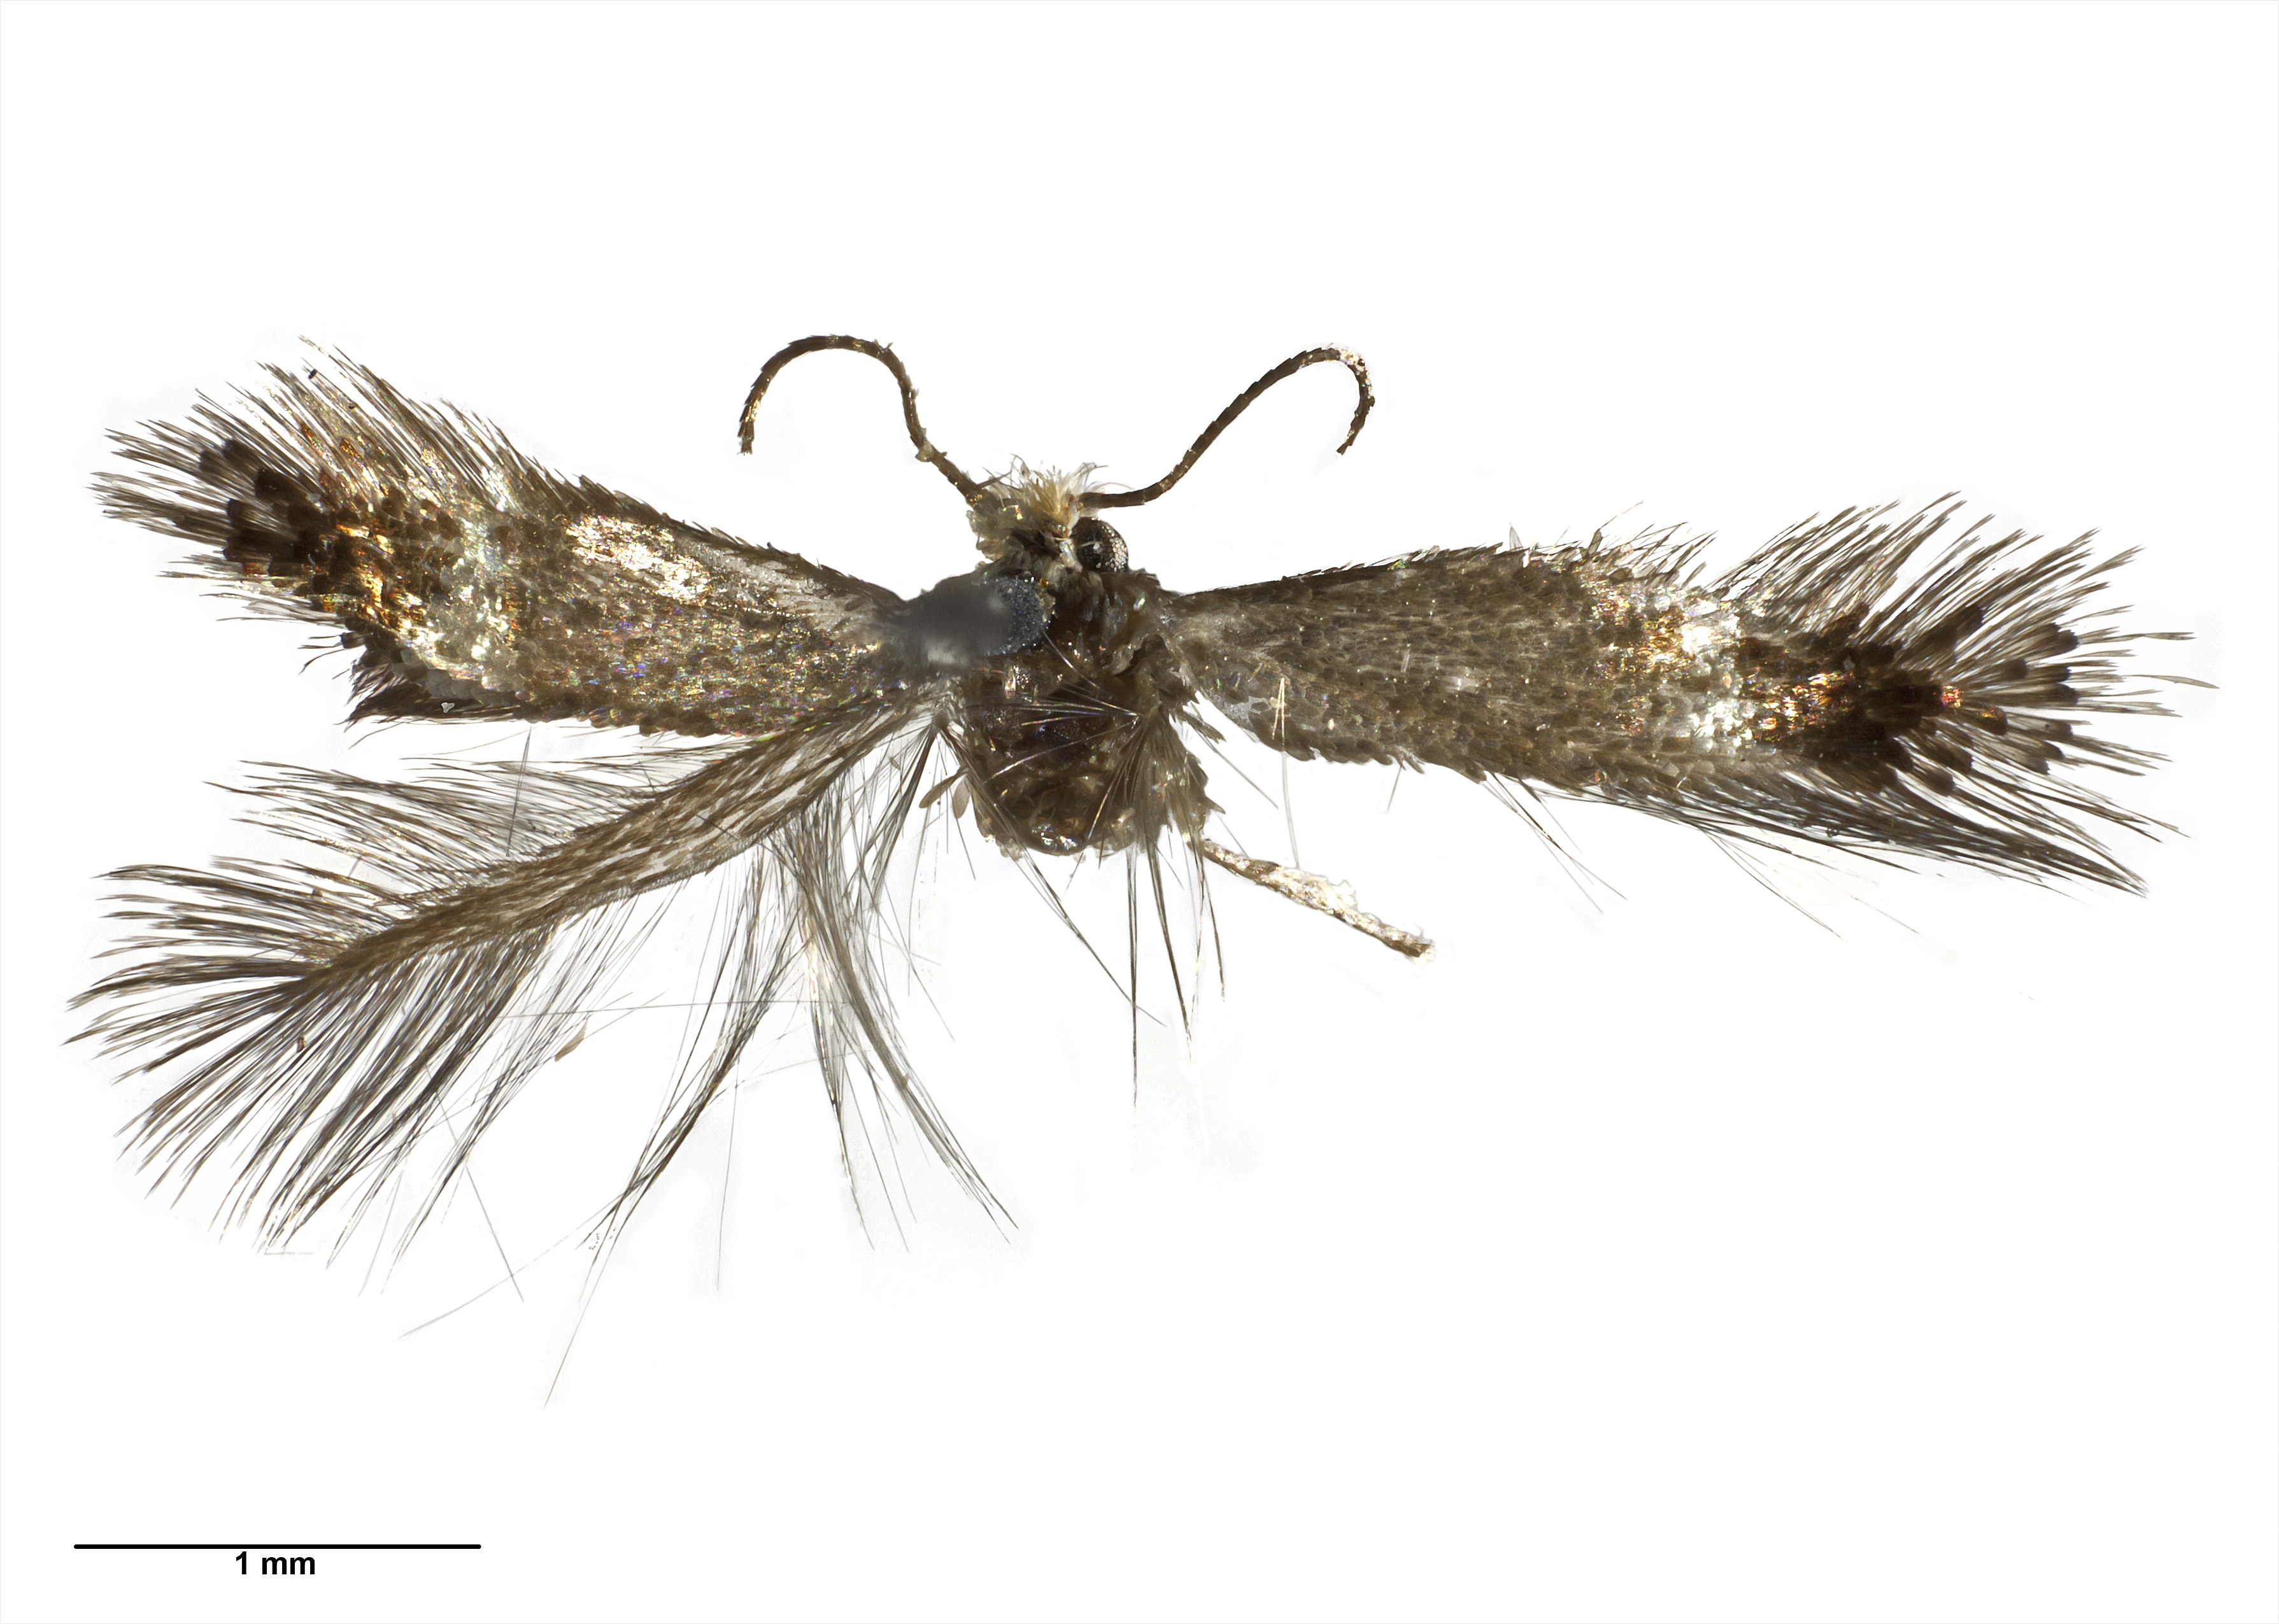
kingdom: Animalia
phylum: Arthropoda
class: Insecta
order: Lepidoptera
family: Nepticulidae
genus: Stigmella
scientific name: Stigmella lucida
